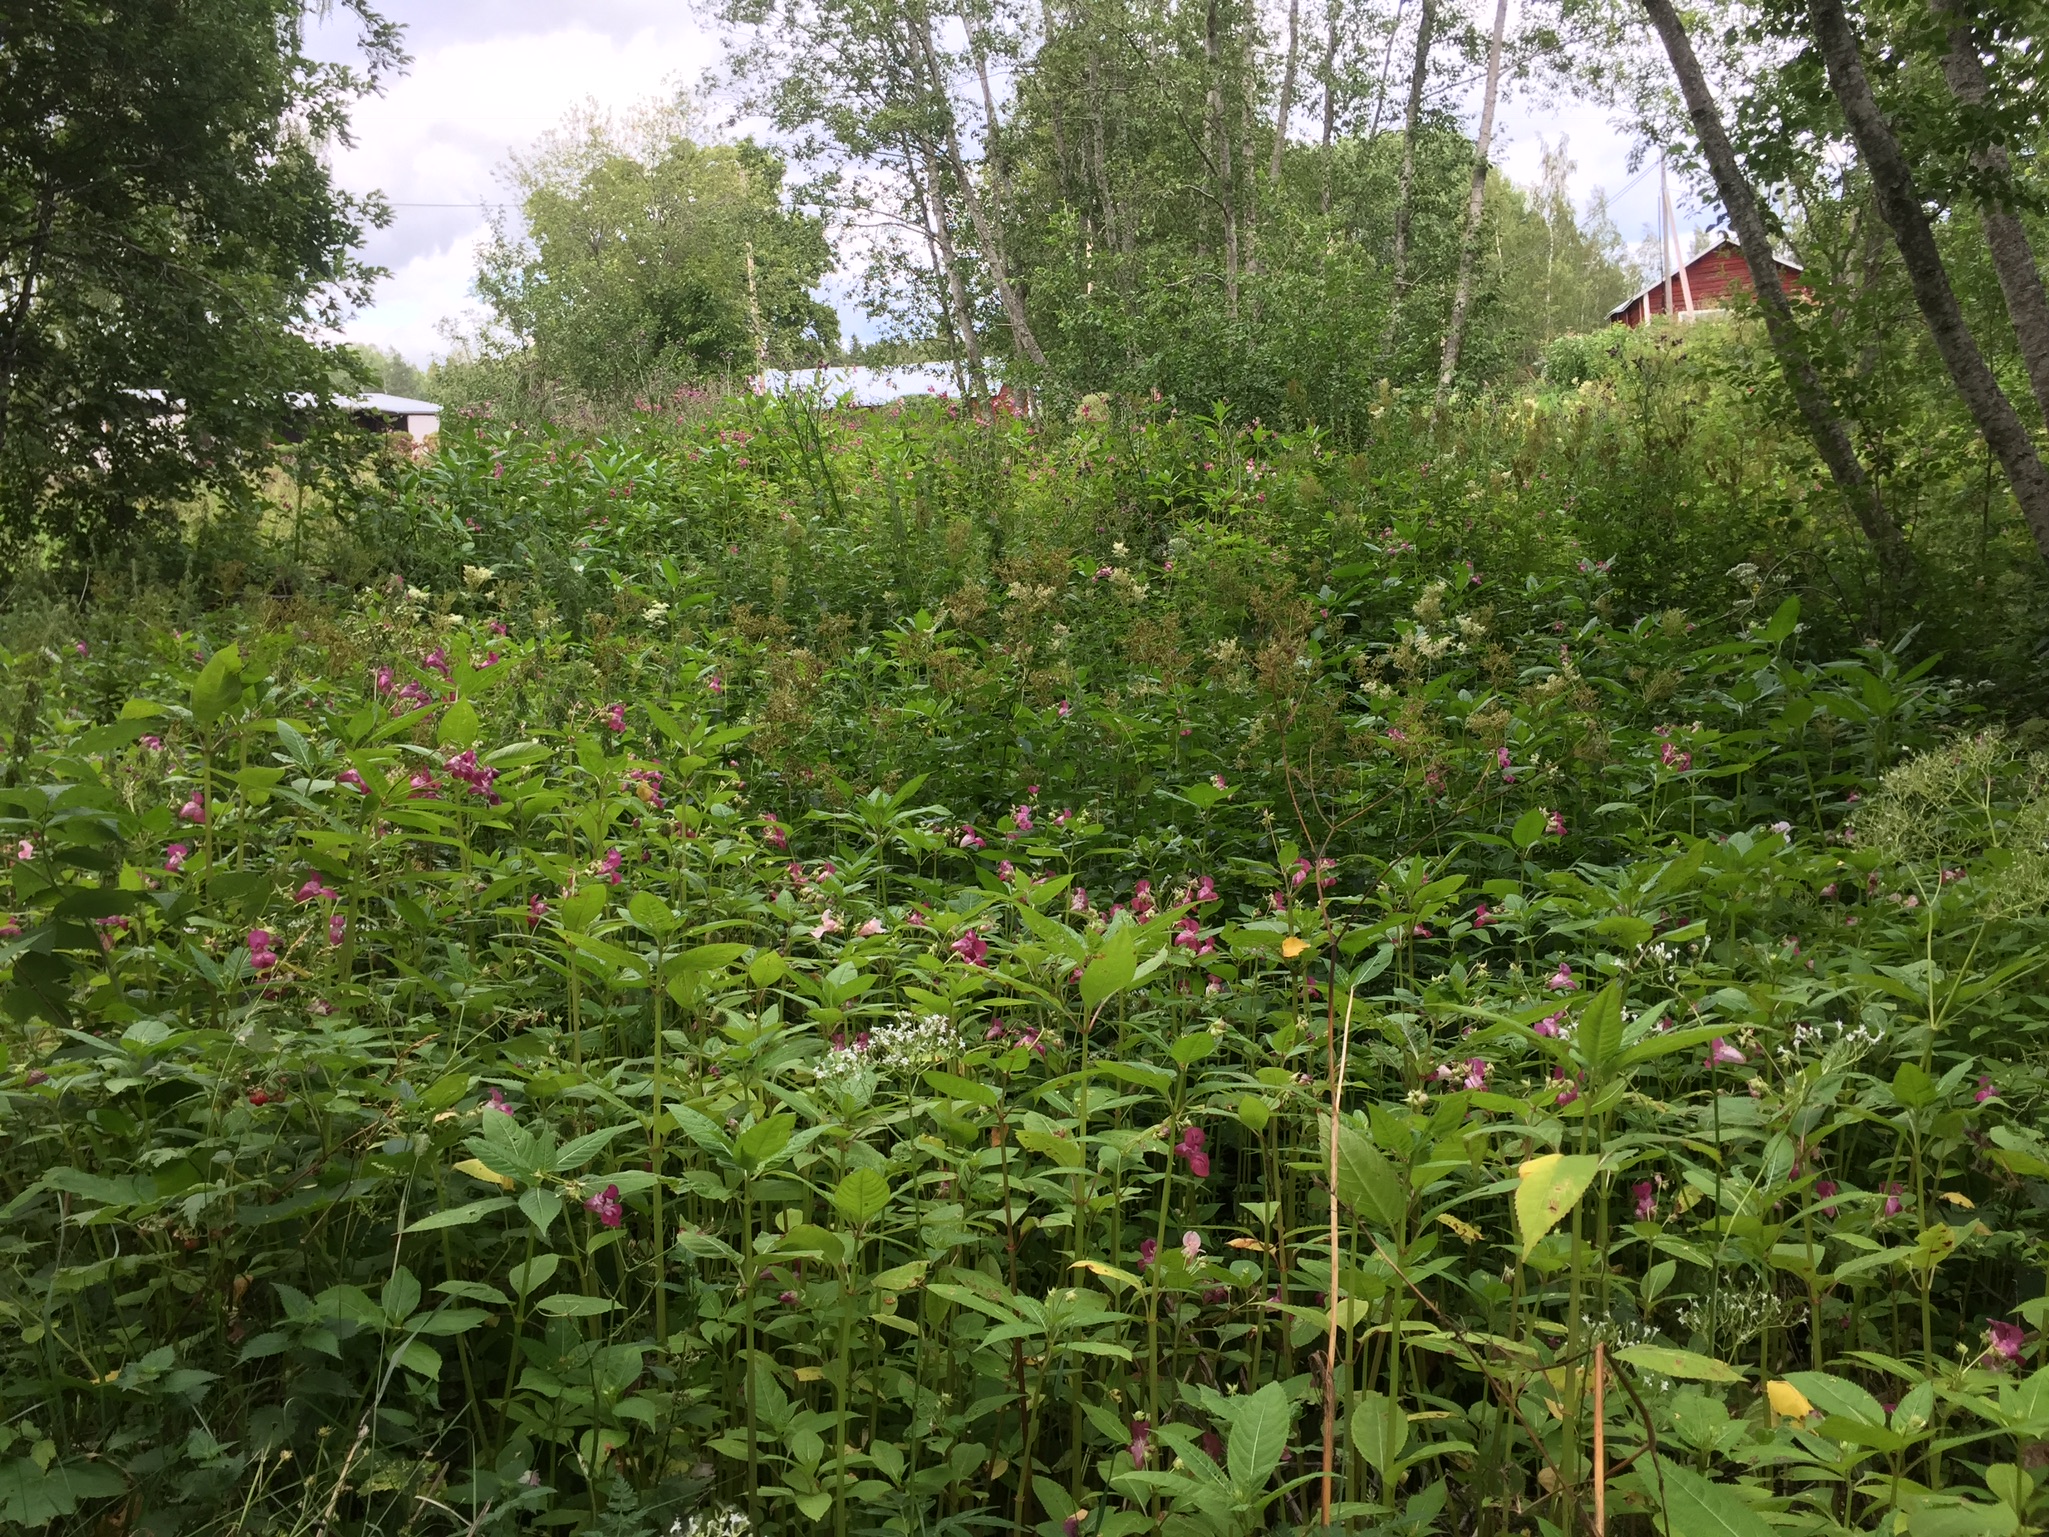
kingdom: Plantae
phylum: Tracheophyta
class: Magnoliopsida
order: Ericales
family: Balsaminaceae
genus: Impatiens
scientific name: Impatiens glandulifera
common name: Himalayan balsam
